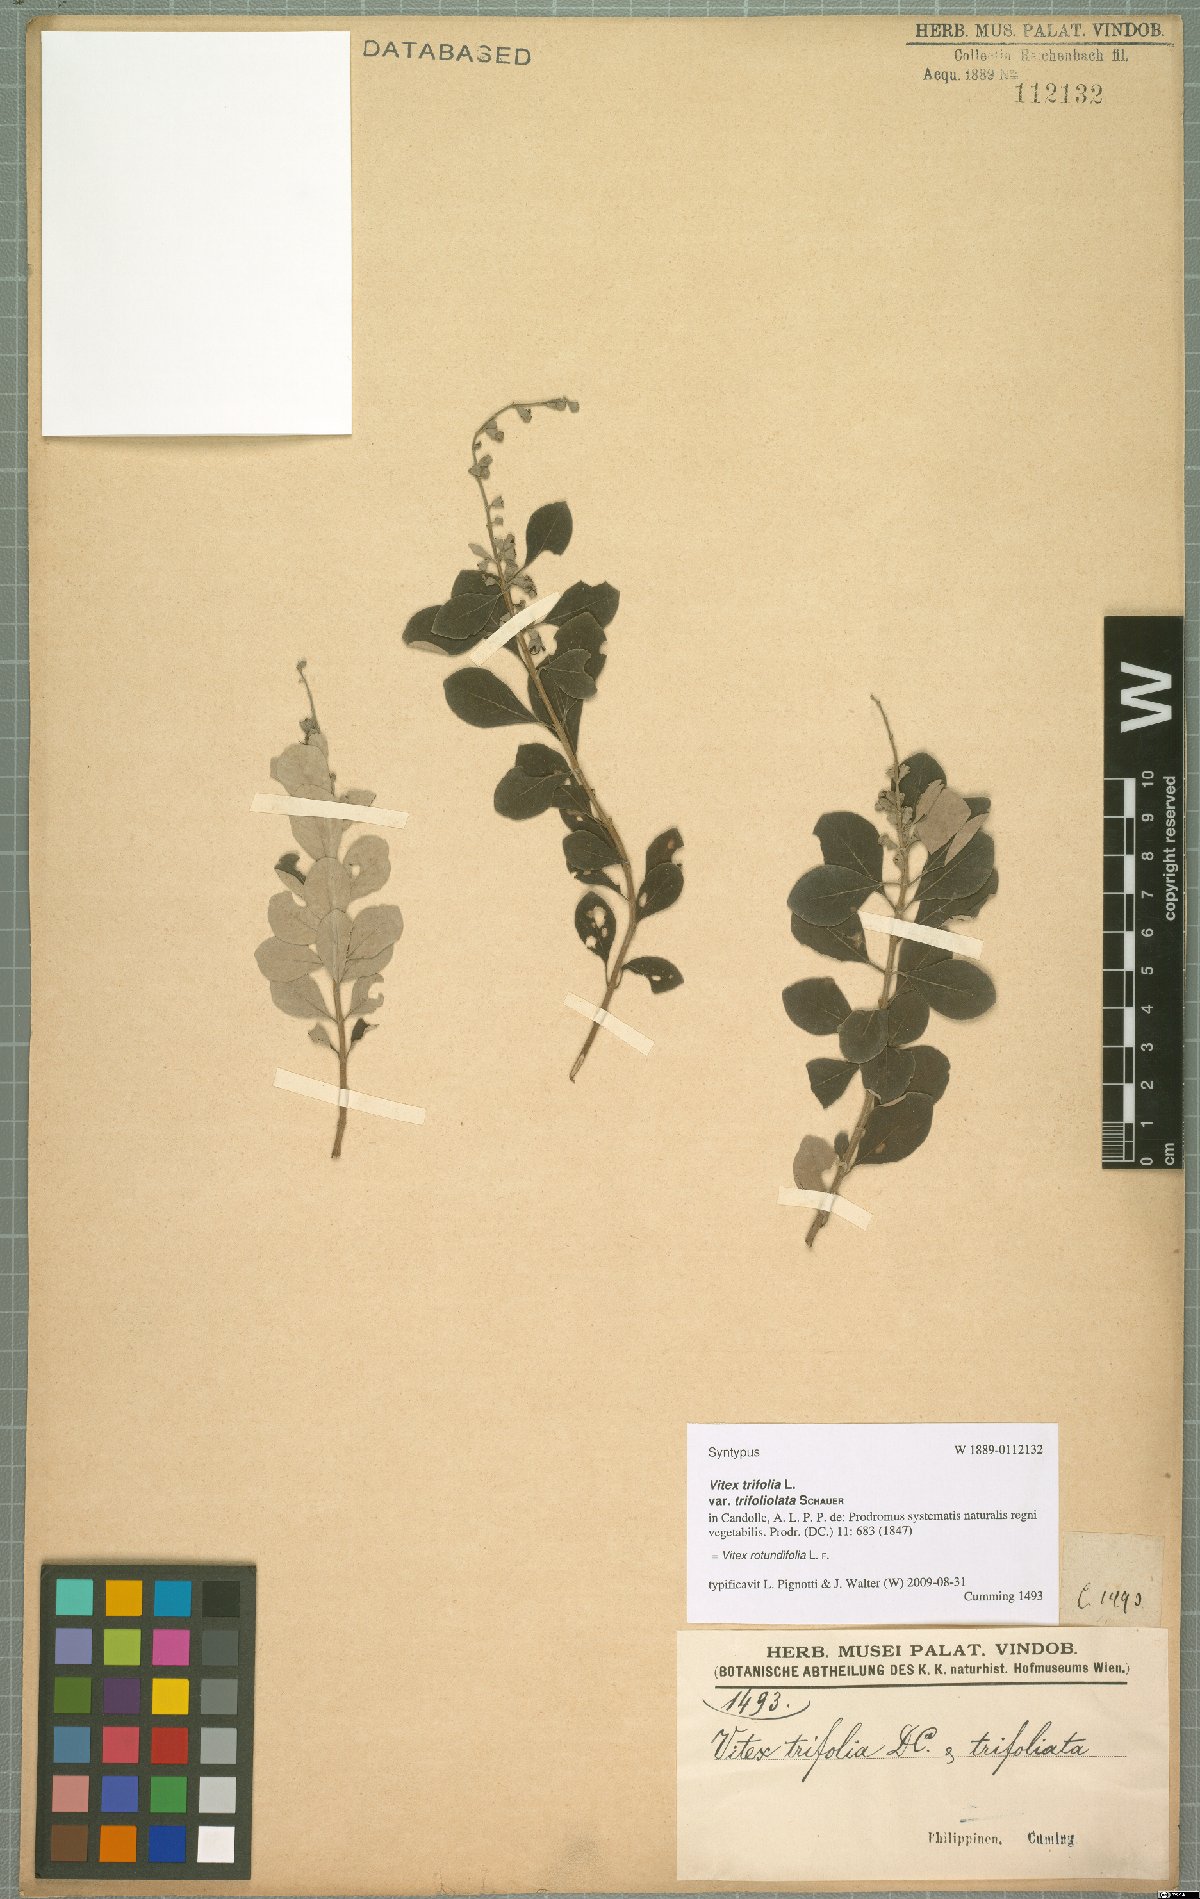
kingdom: Plantae
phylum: Tracheophyta
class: Magnoliopsida
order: Lamiales
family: Lamiaceae
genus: Vitex
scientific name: Vitex rotundifolia
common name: Beach vitex
